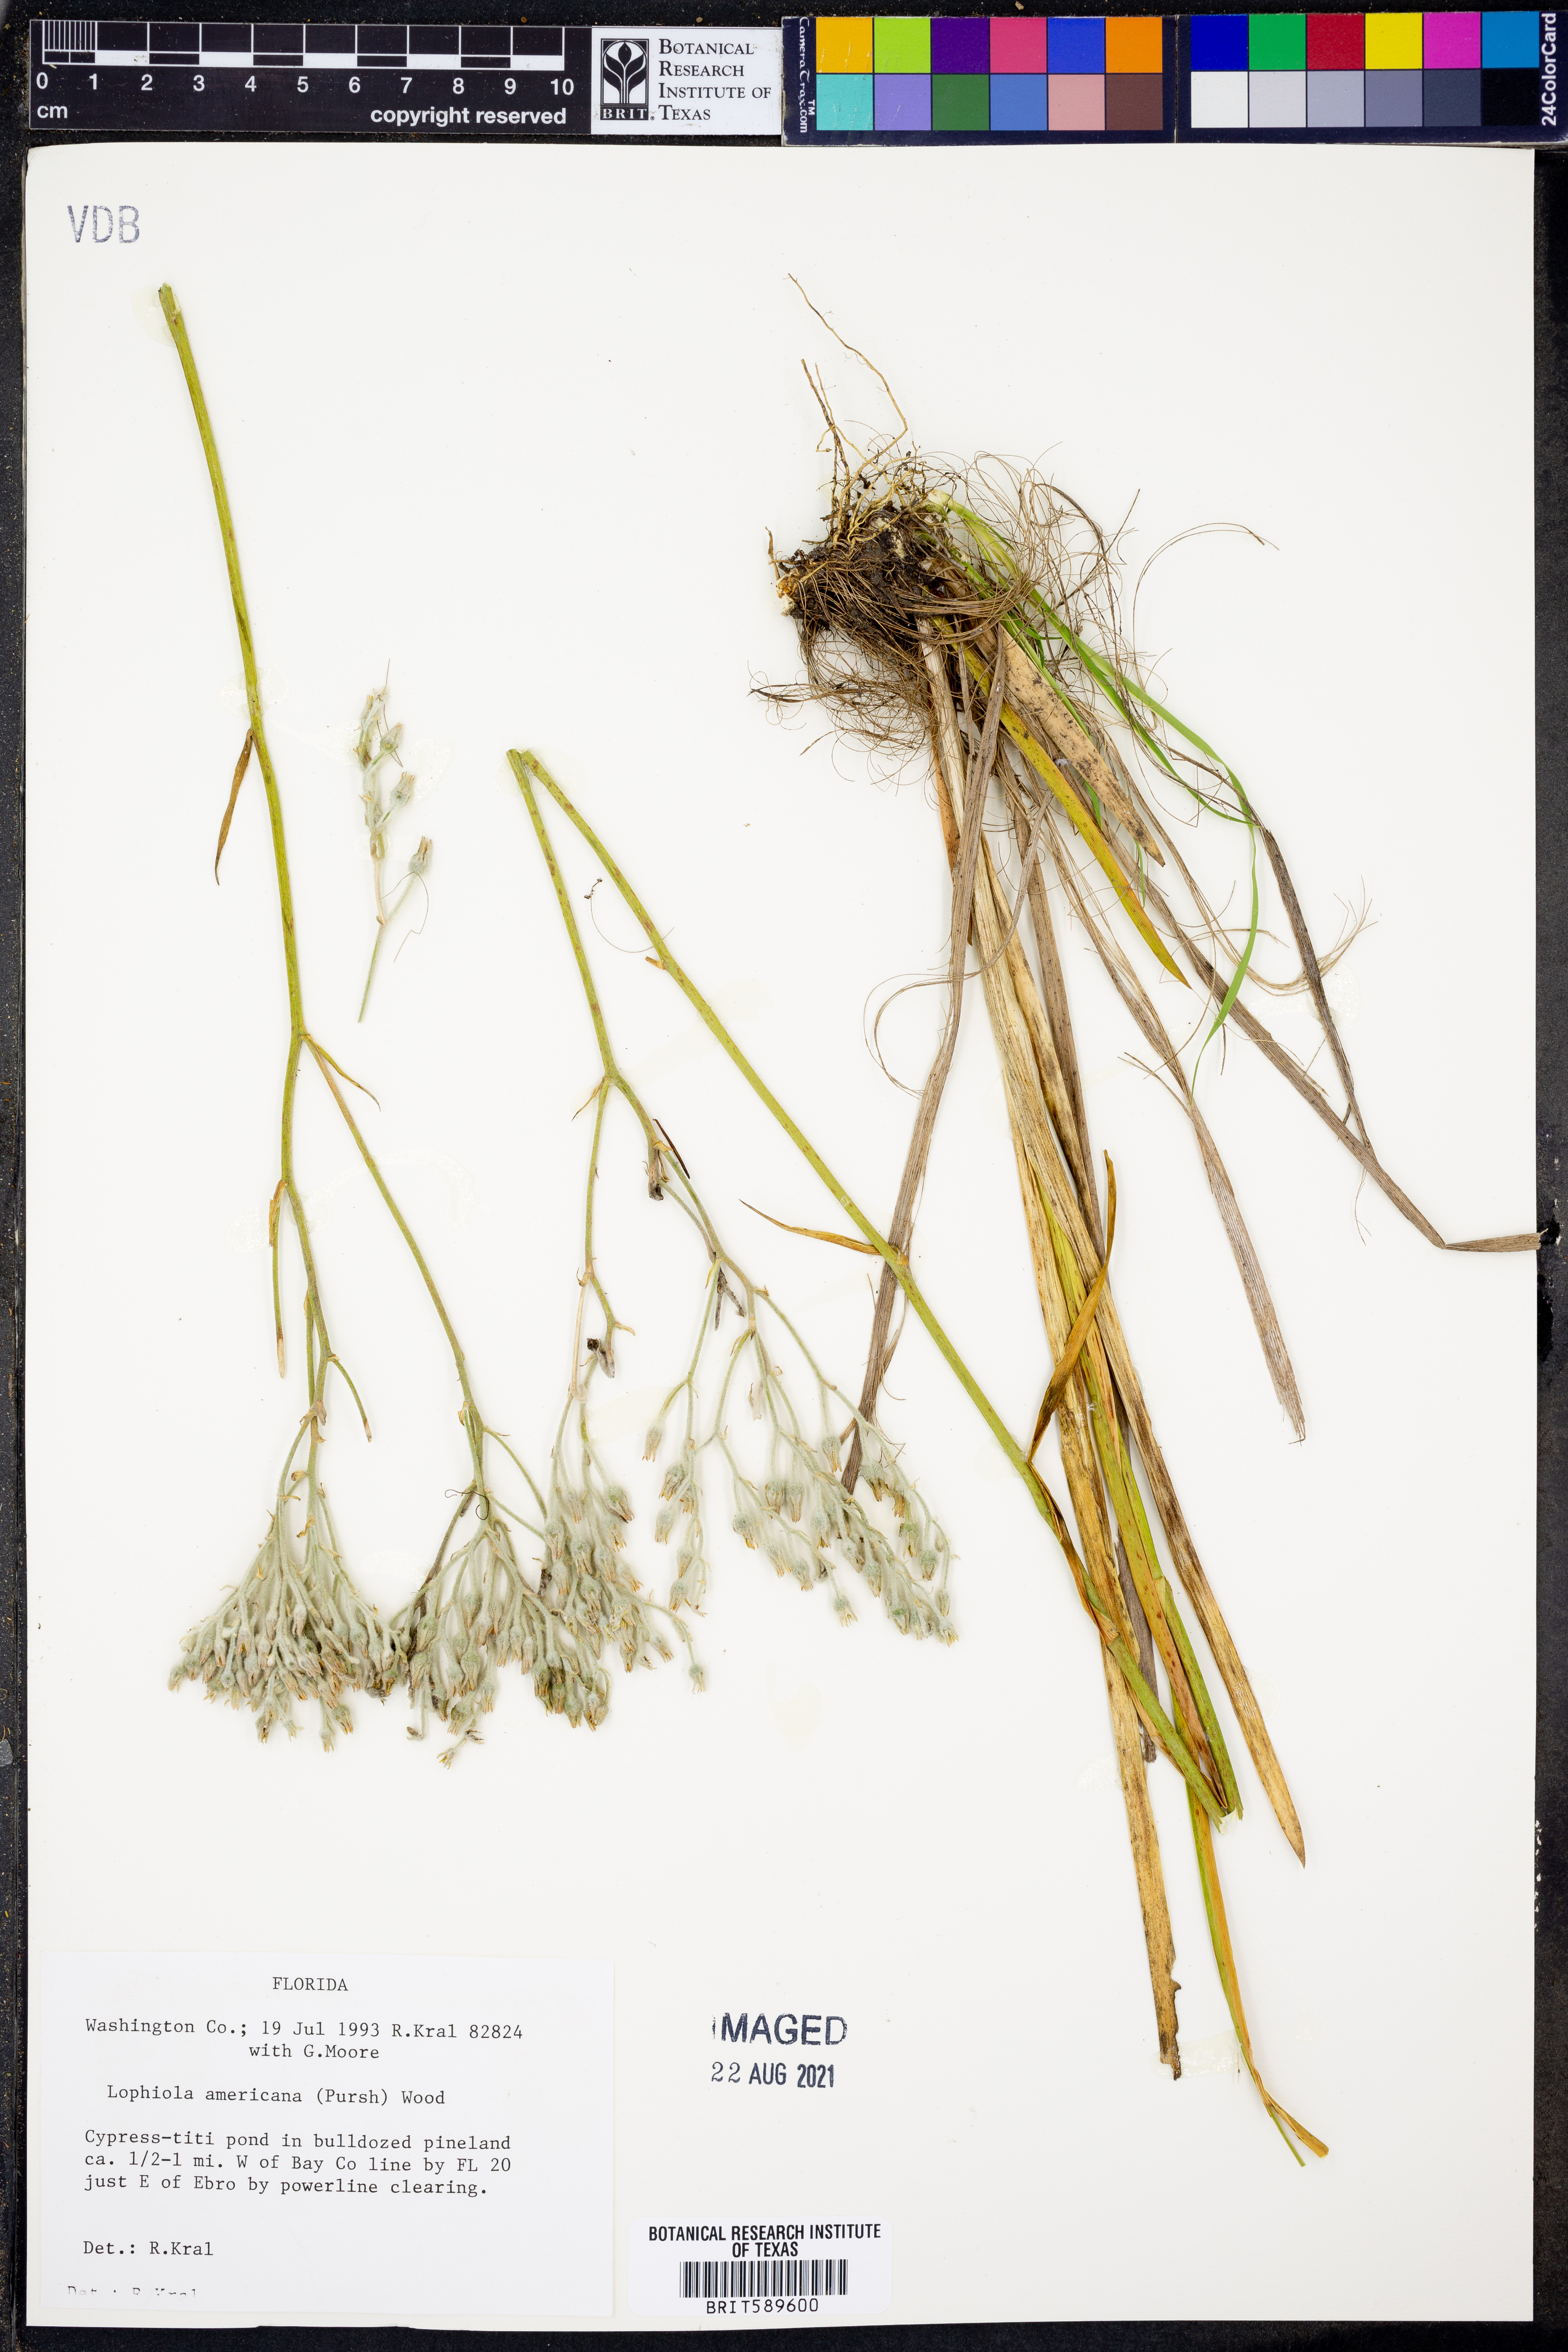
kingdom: Plantae
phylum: Tracheophyta
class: Liliopsida
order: Dioscoreales
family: Nartheciaceae
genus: Lophiola
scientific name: Lophiola aurea
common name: Golden-crest
